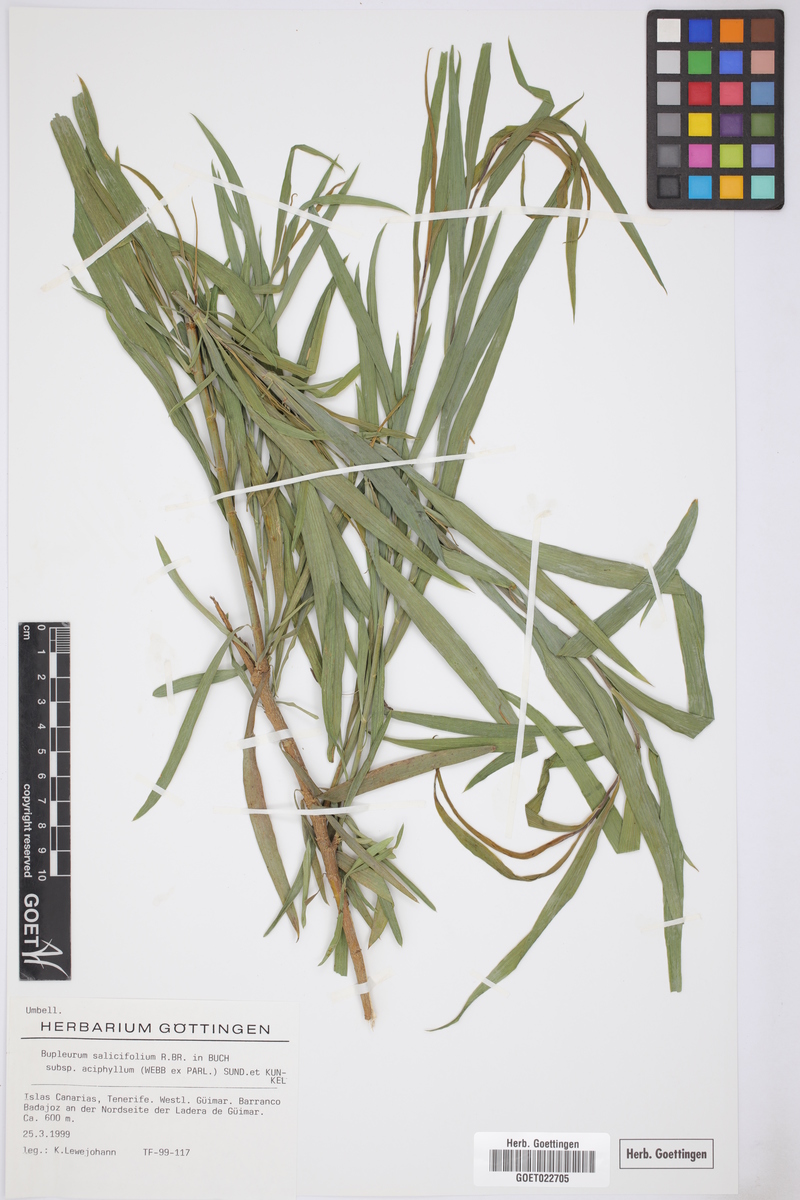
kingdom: Plantae
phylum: Tracheophyta
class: Magnoliopsida
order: Apiales
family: Apiaceae
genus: Bupleurum
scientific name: Bupleurum salicifolium
